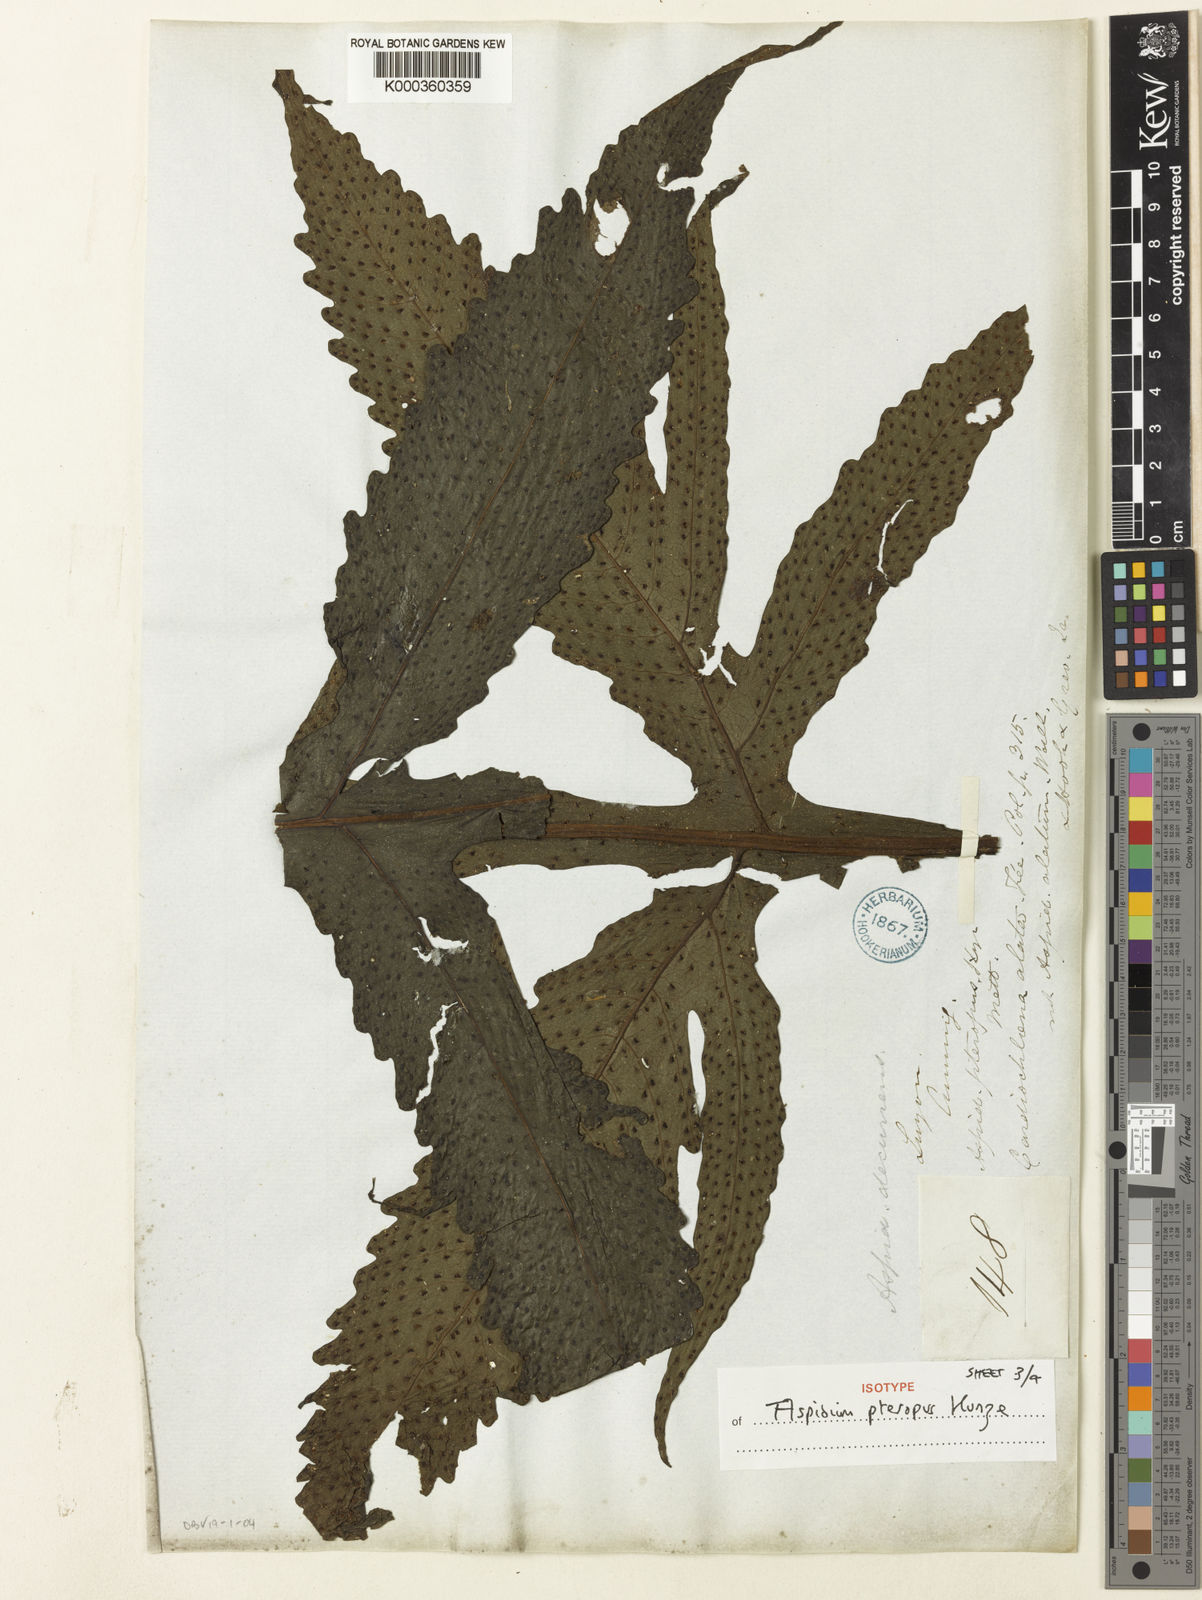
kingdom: Plantae
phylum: Tracheophyta
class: Polypodiopsida
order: Polypodiales
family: Tectariaceae
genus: Tectaria
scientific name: Tectaria decurrens
